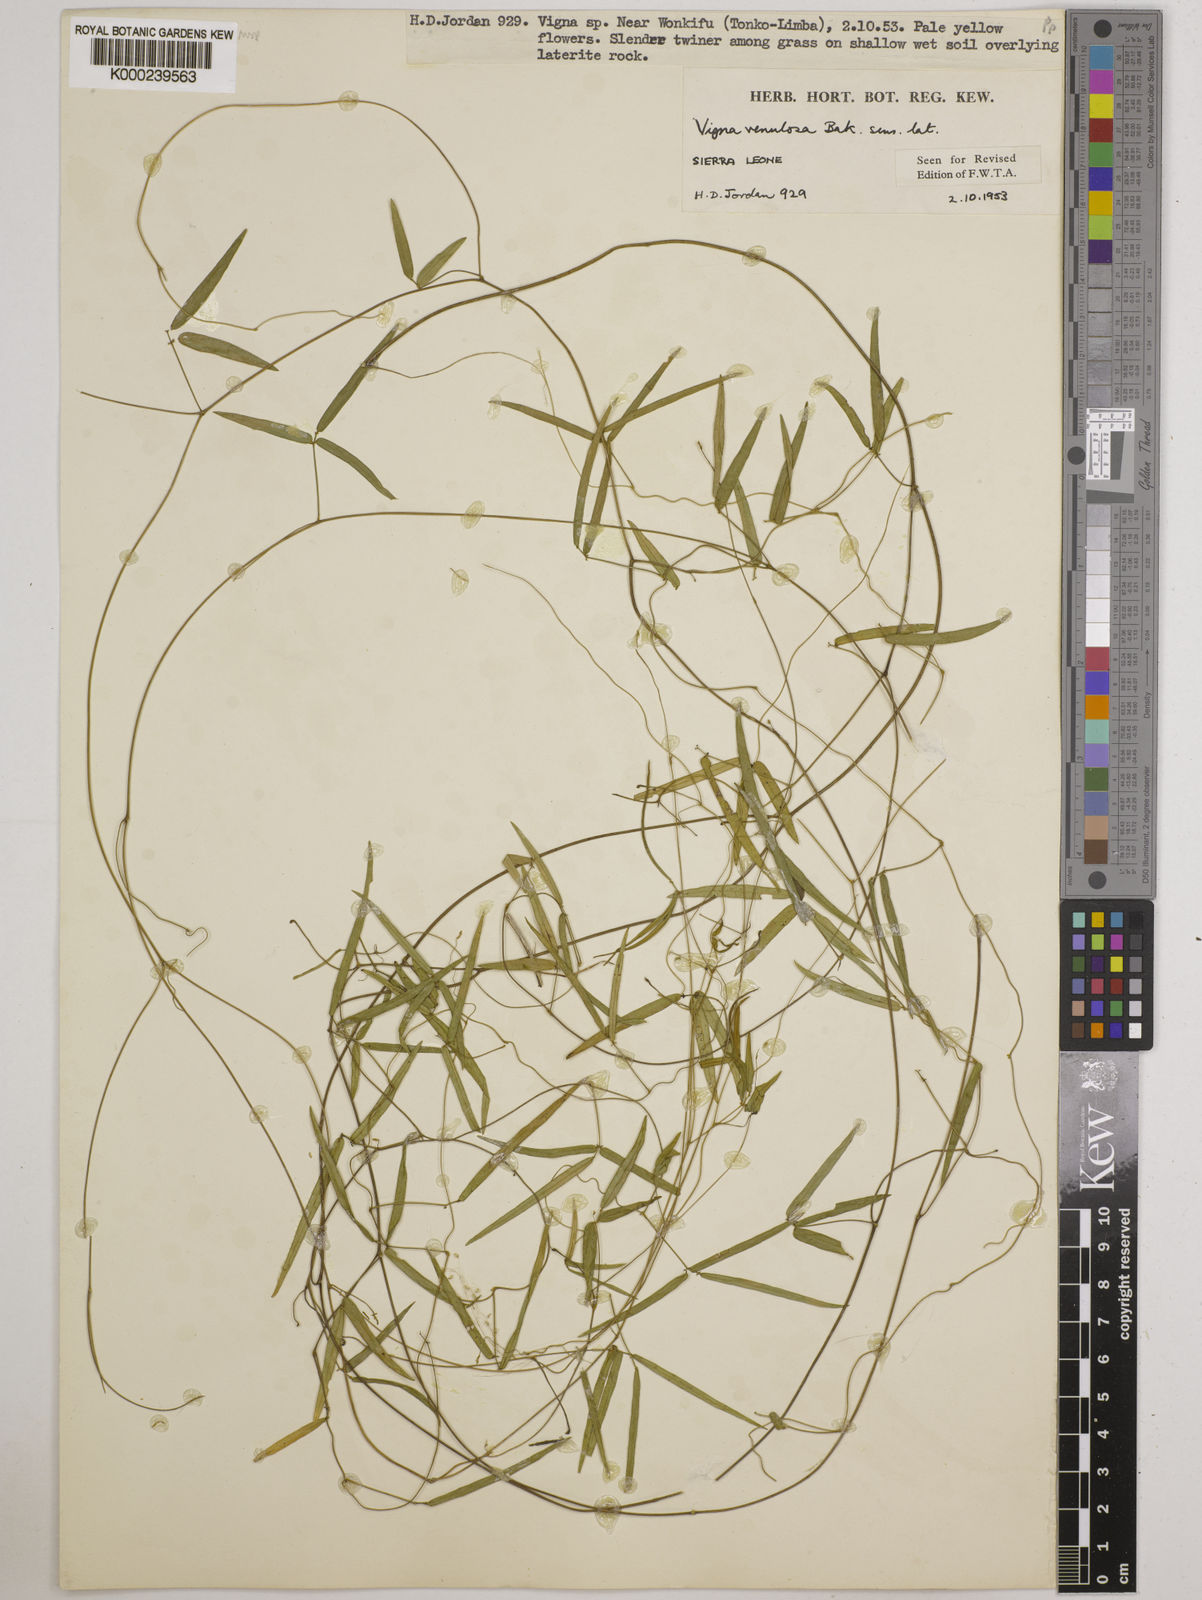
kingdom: Plantae
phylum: Tracheophyta
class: Magnoliopsida
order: Fabales
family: Fabaceae
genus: Vigna
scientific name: Vigna venulosa
